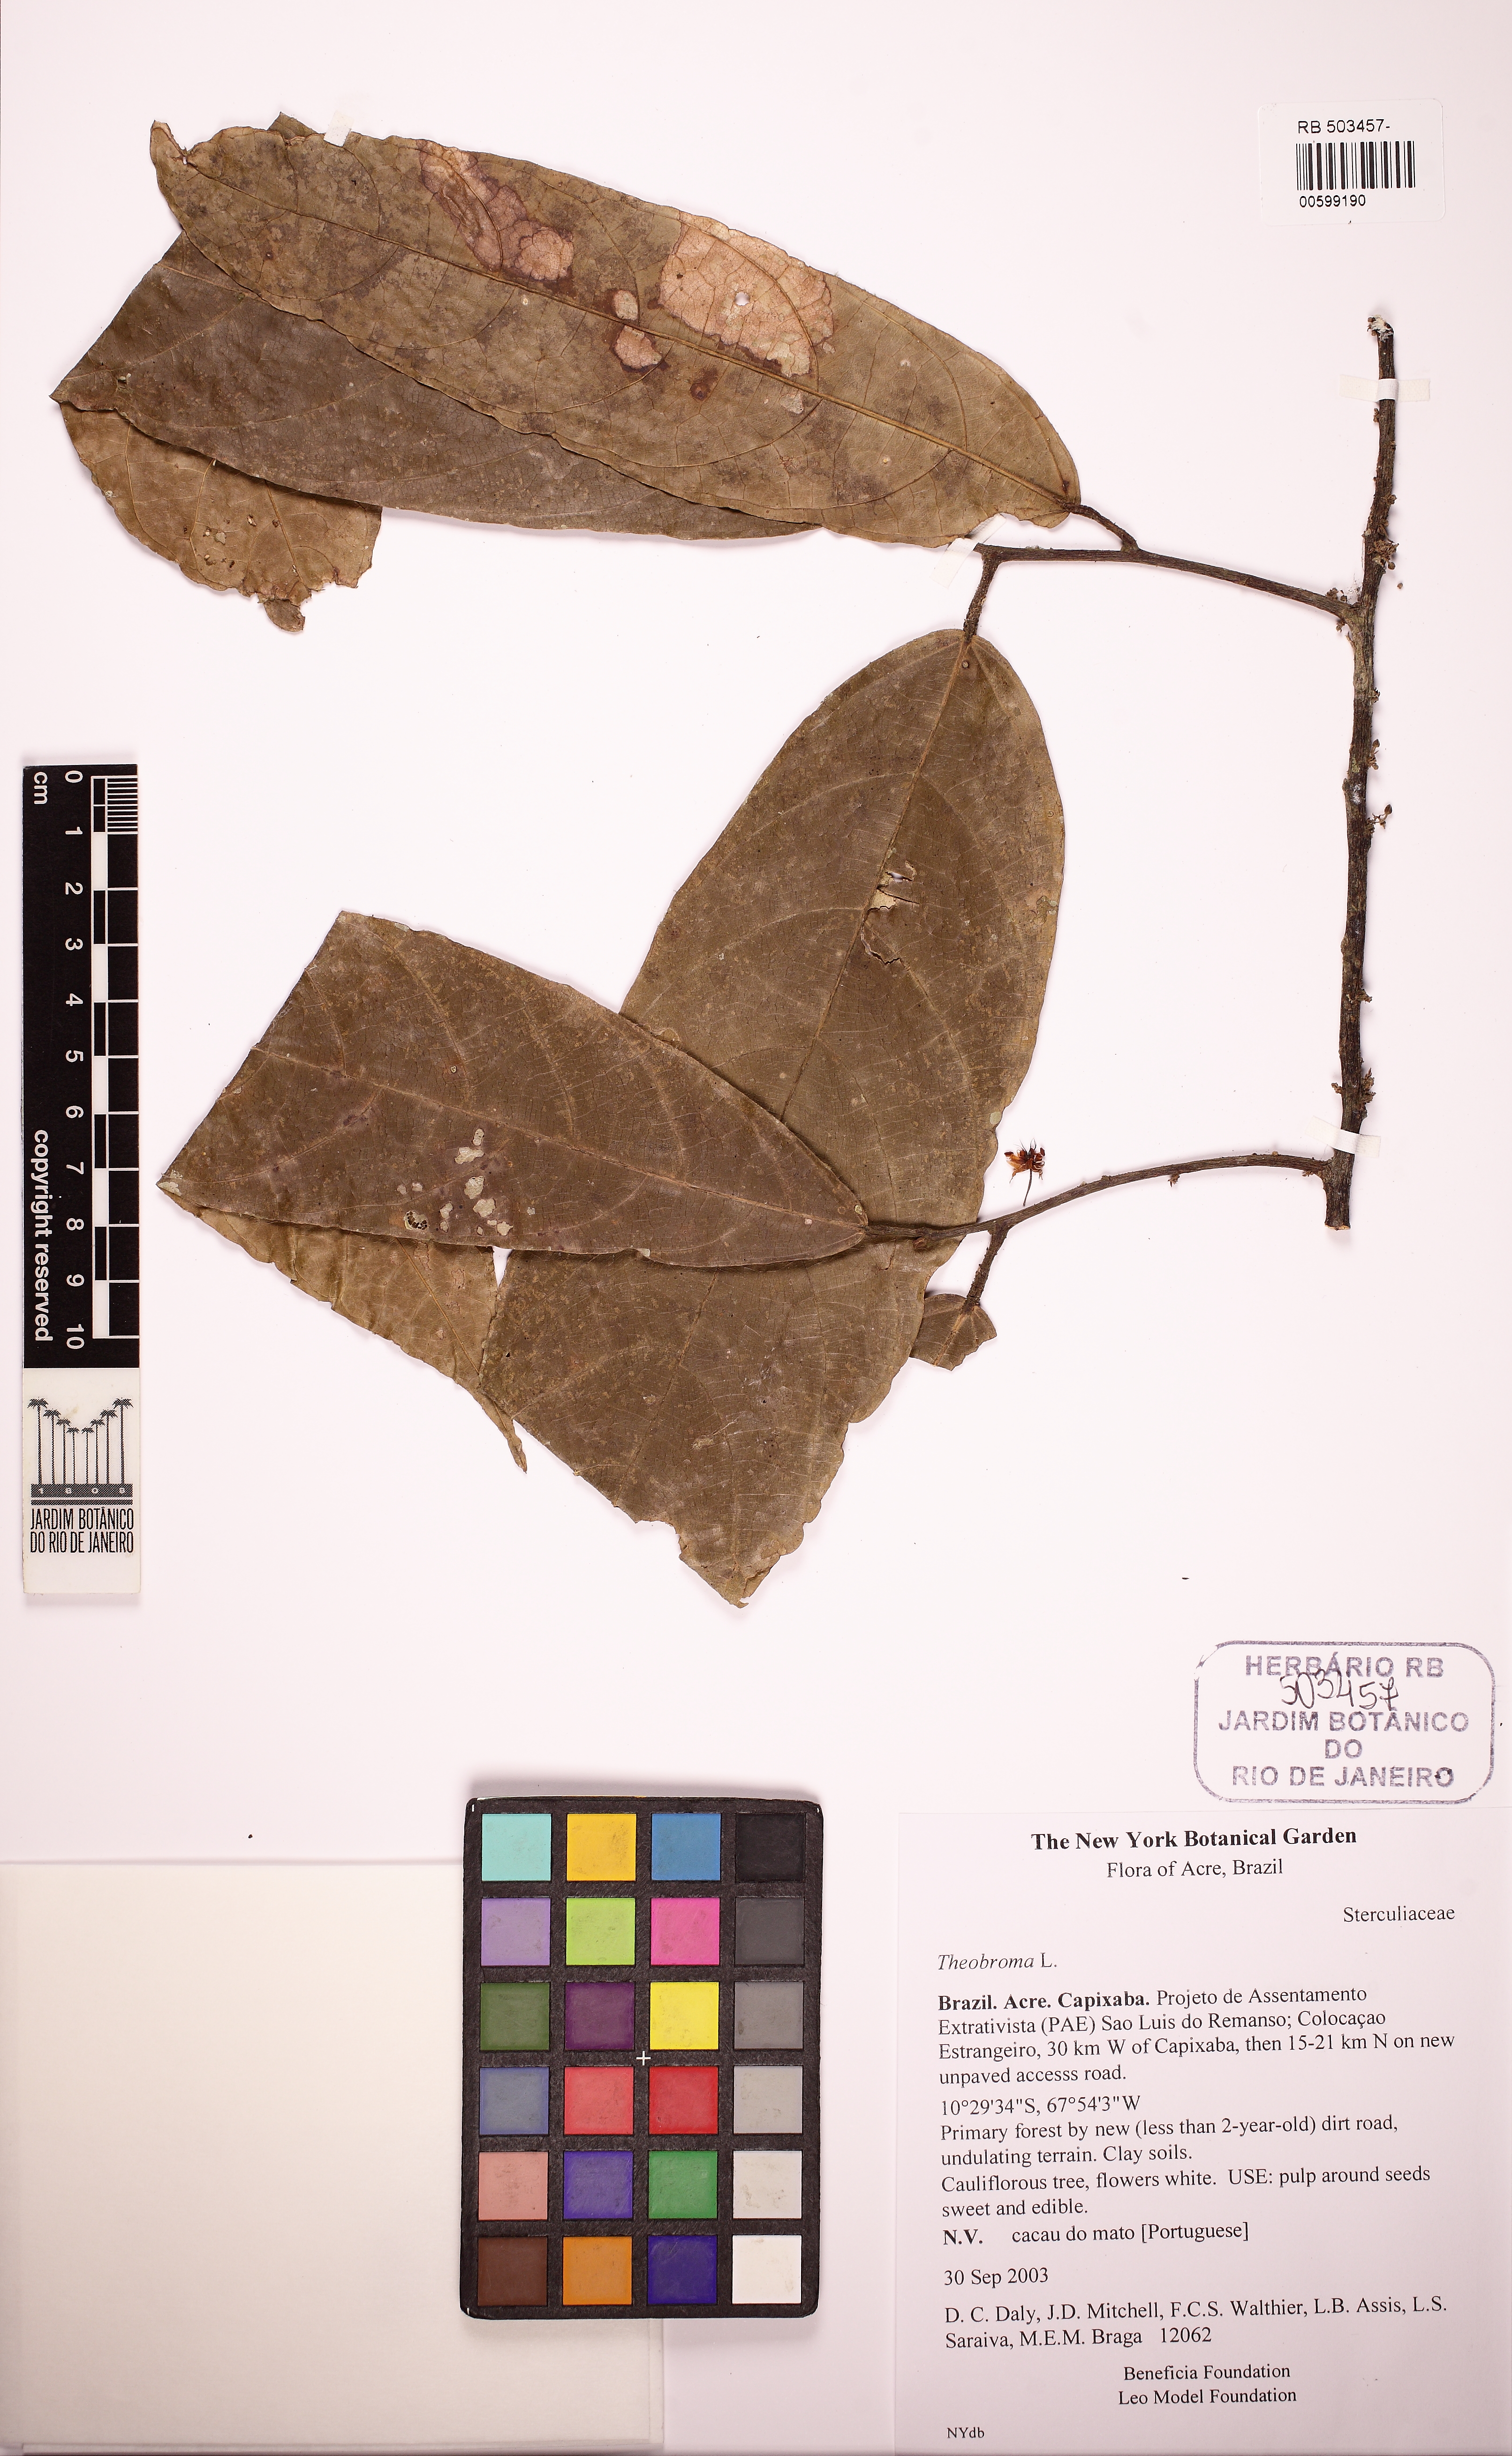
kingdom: Plantae
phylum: Tracheophyta
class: Magnoliopsida
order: Malvales
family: Malvaceae
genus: Theobroma
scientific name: Theobroma microcarpum
